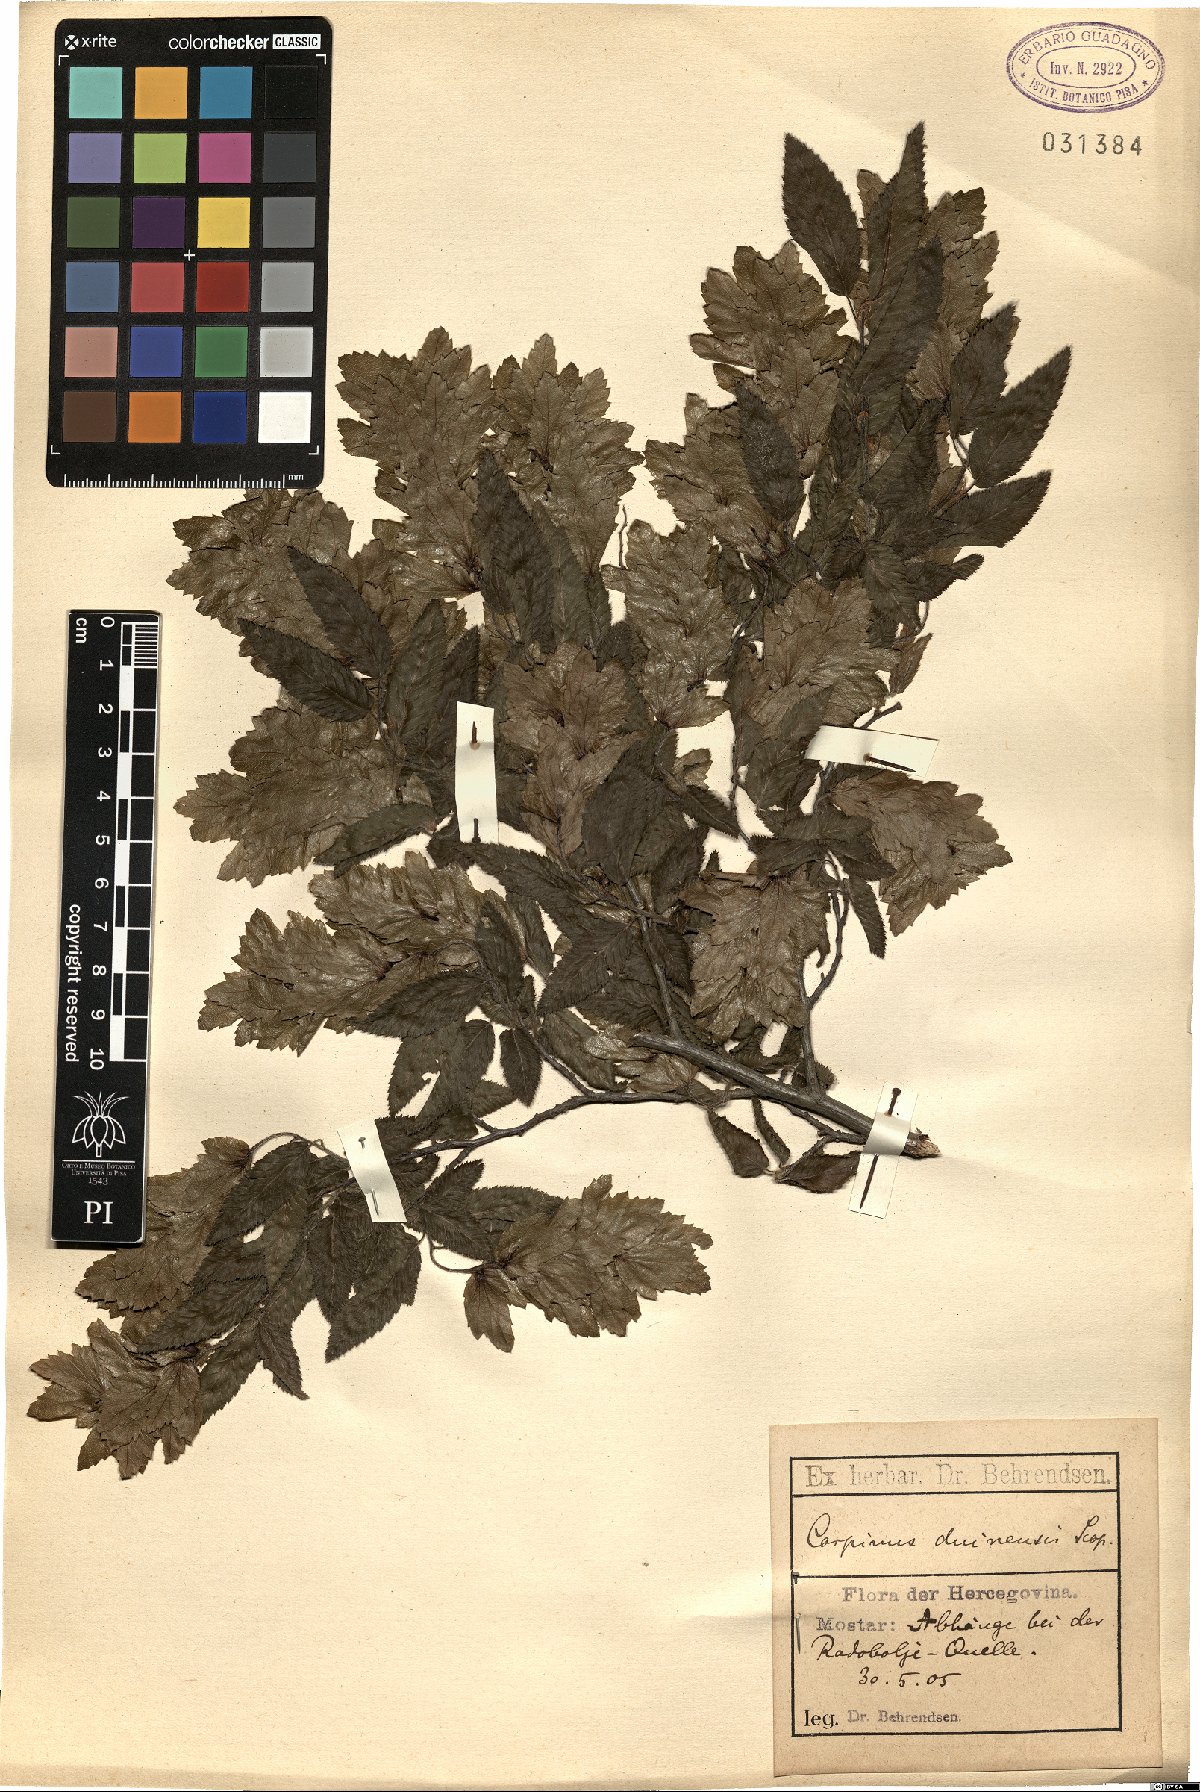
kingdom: Plantae
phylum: Tracheophyta
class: Magnoliopsida
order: Fagales
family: Betulaceae
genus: Carpinus
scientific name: Carpinus orientalis
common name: Eastern hornbeam
